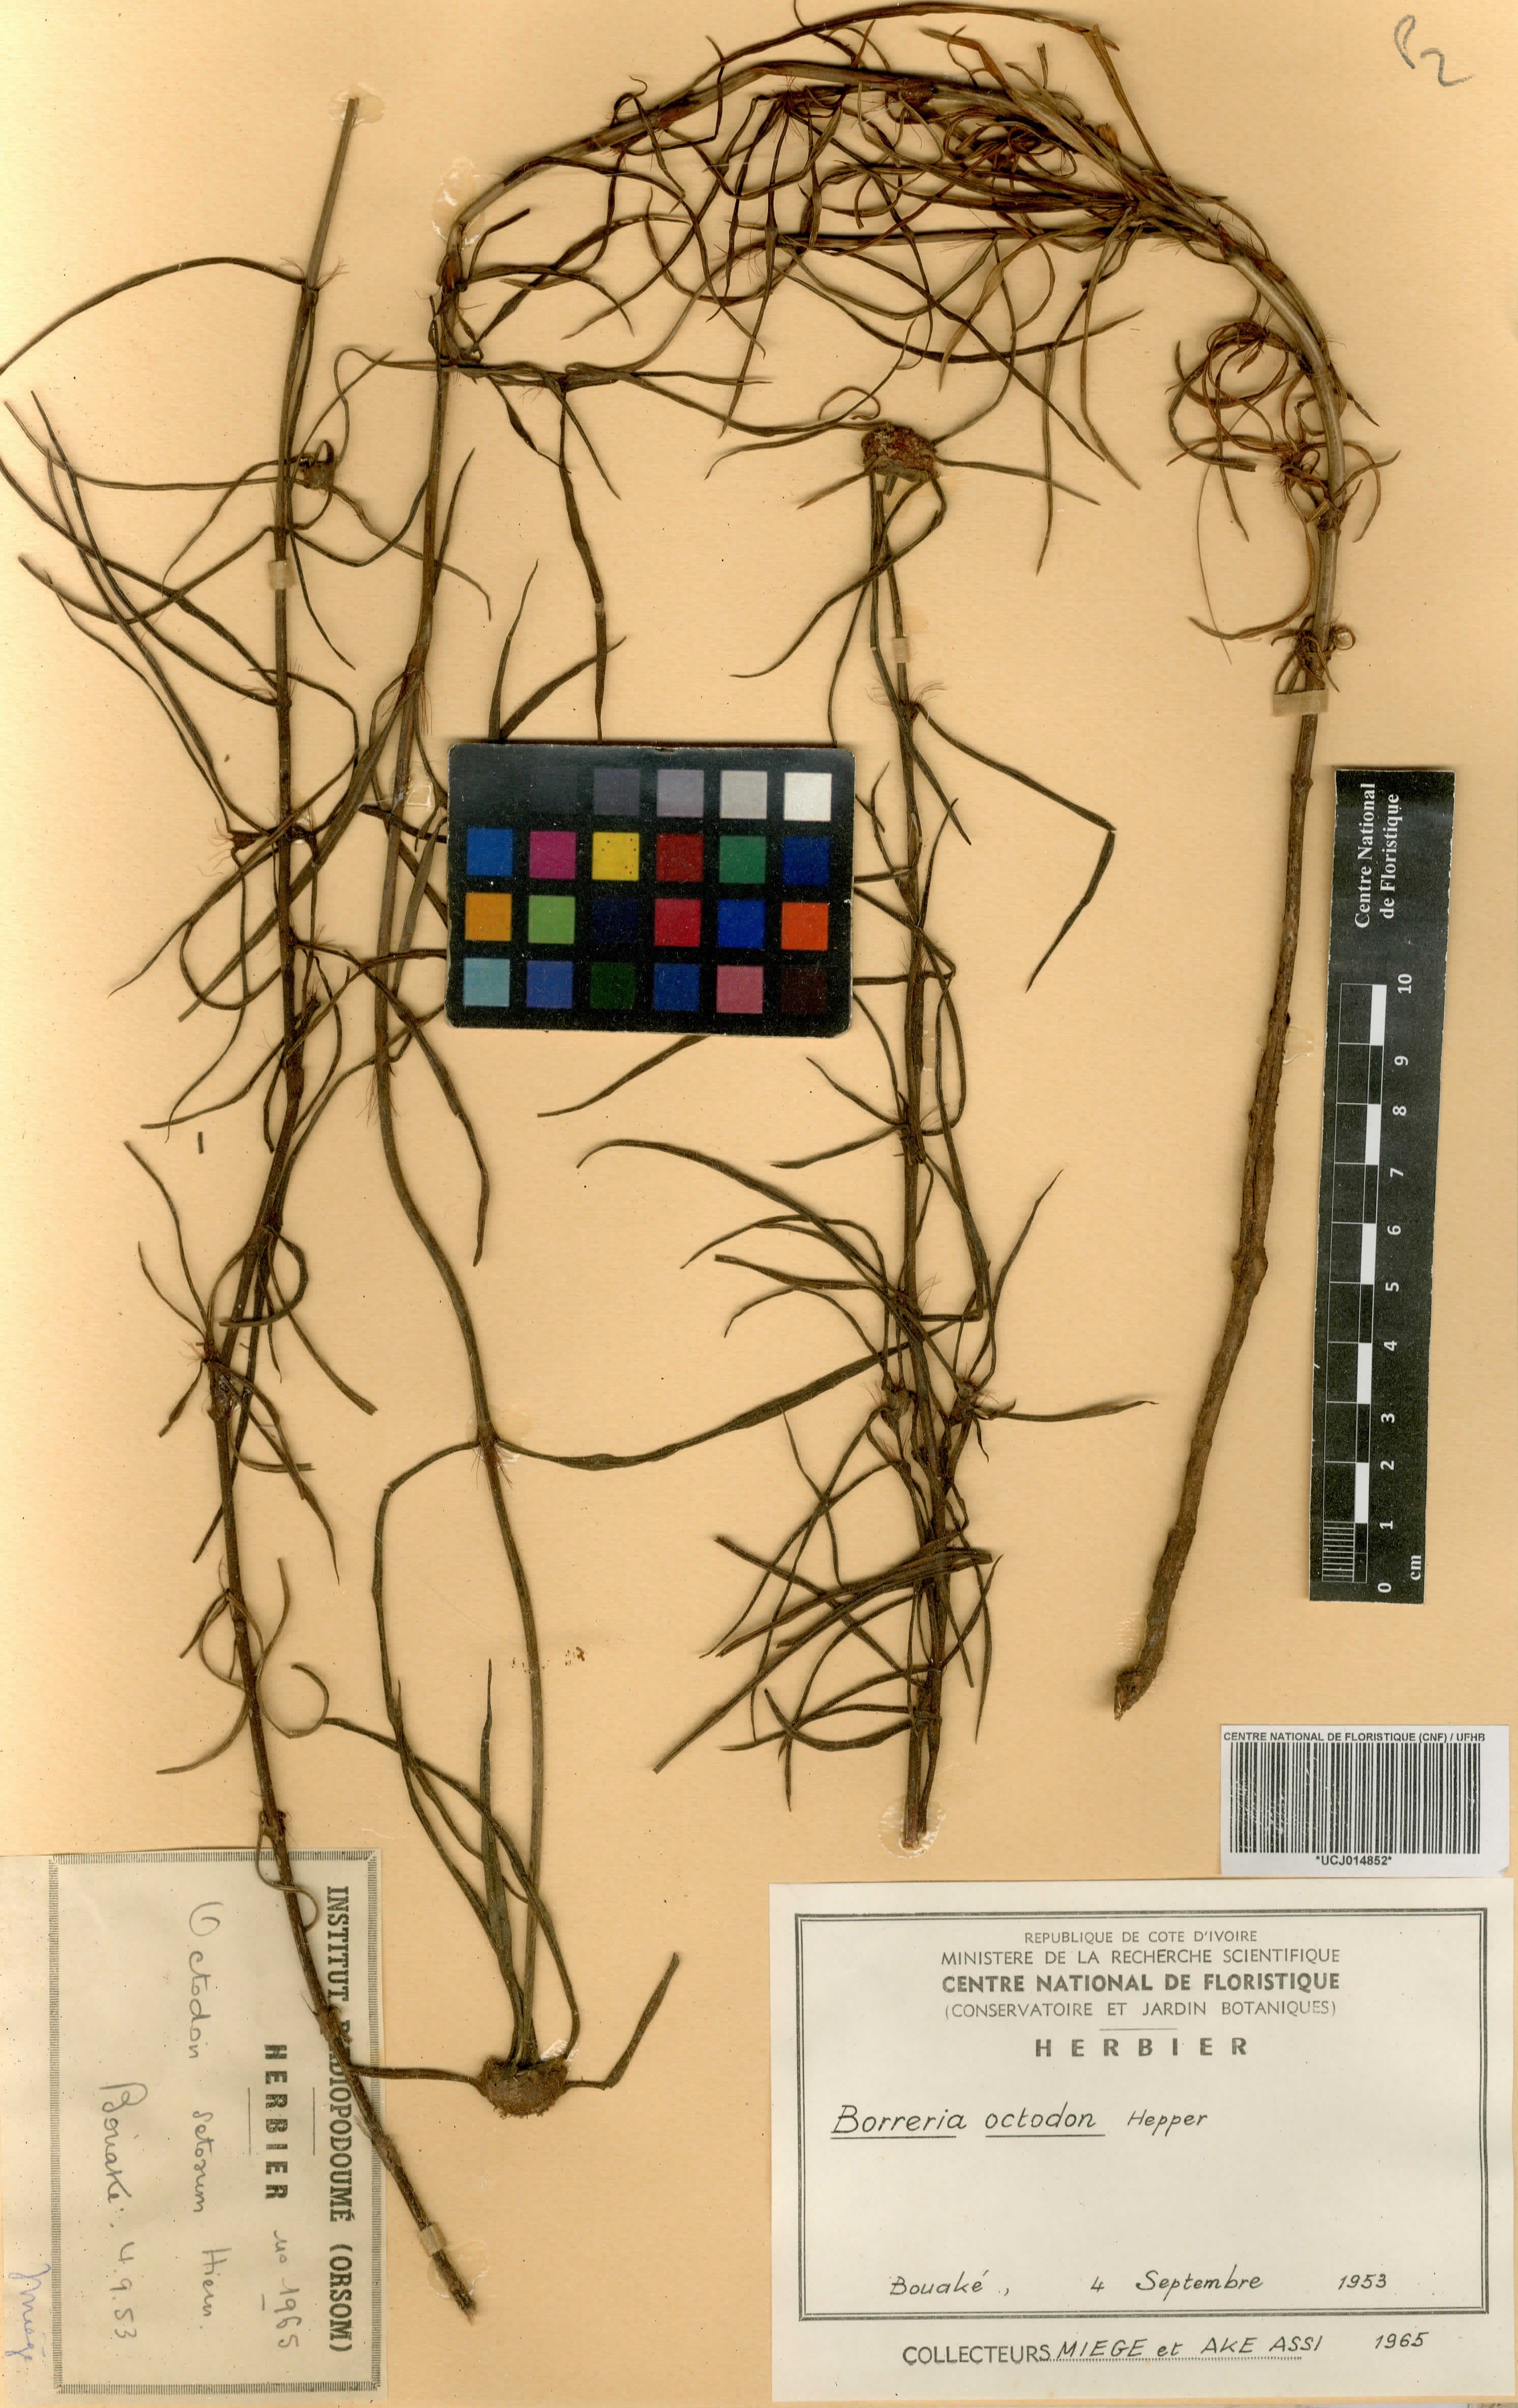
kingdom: Plantae
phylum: Tracheophyta
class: Magnoliopsida
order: Gentianales
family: Rubiaceae
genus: Spermacoce
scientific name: Spermacoce octodon
